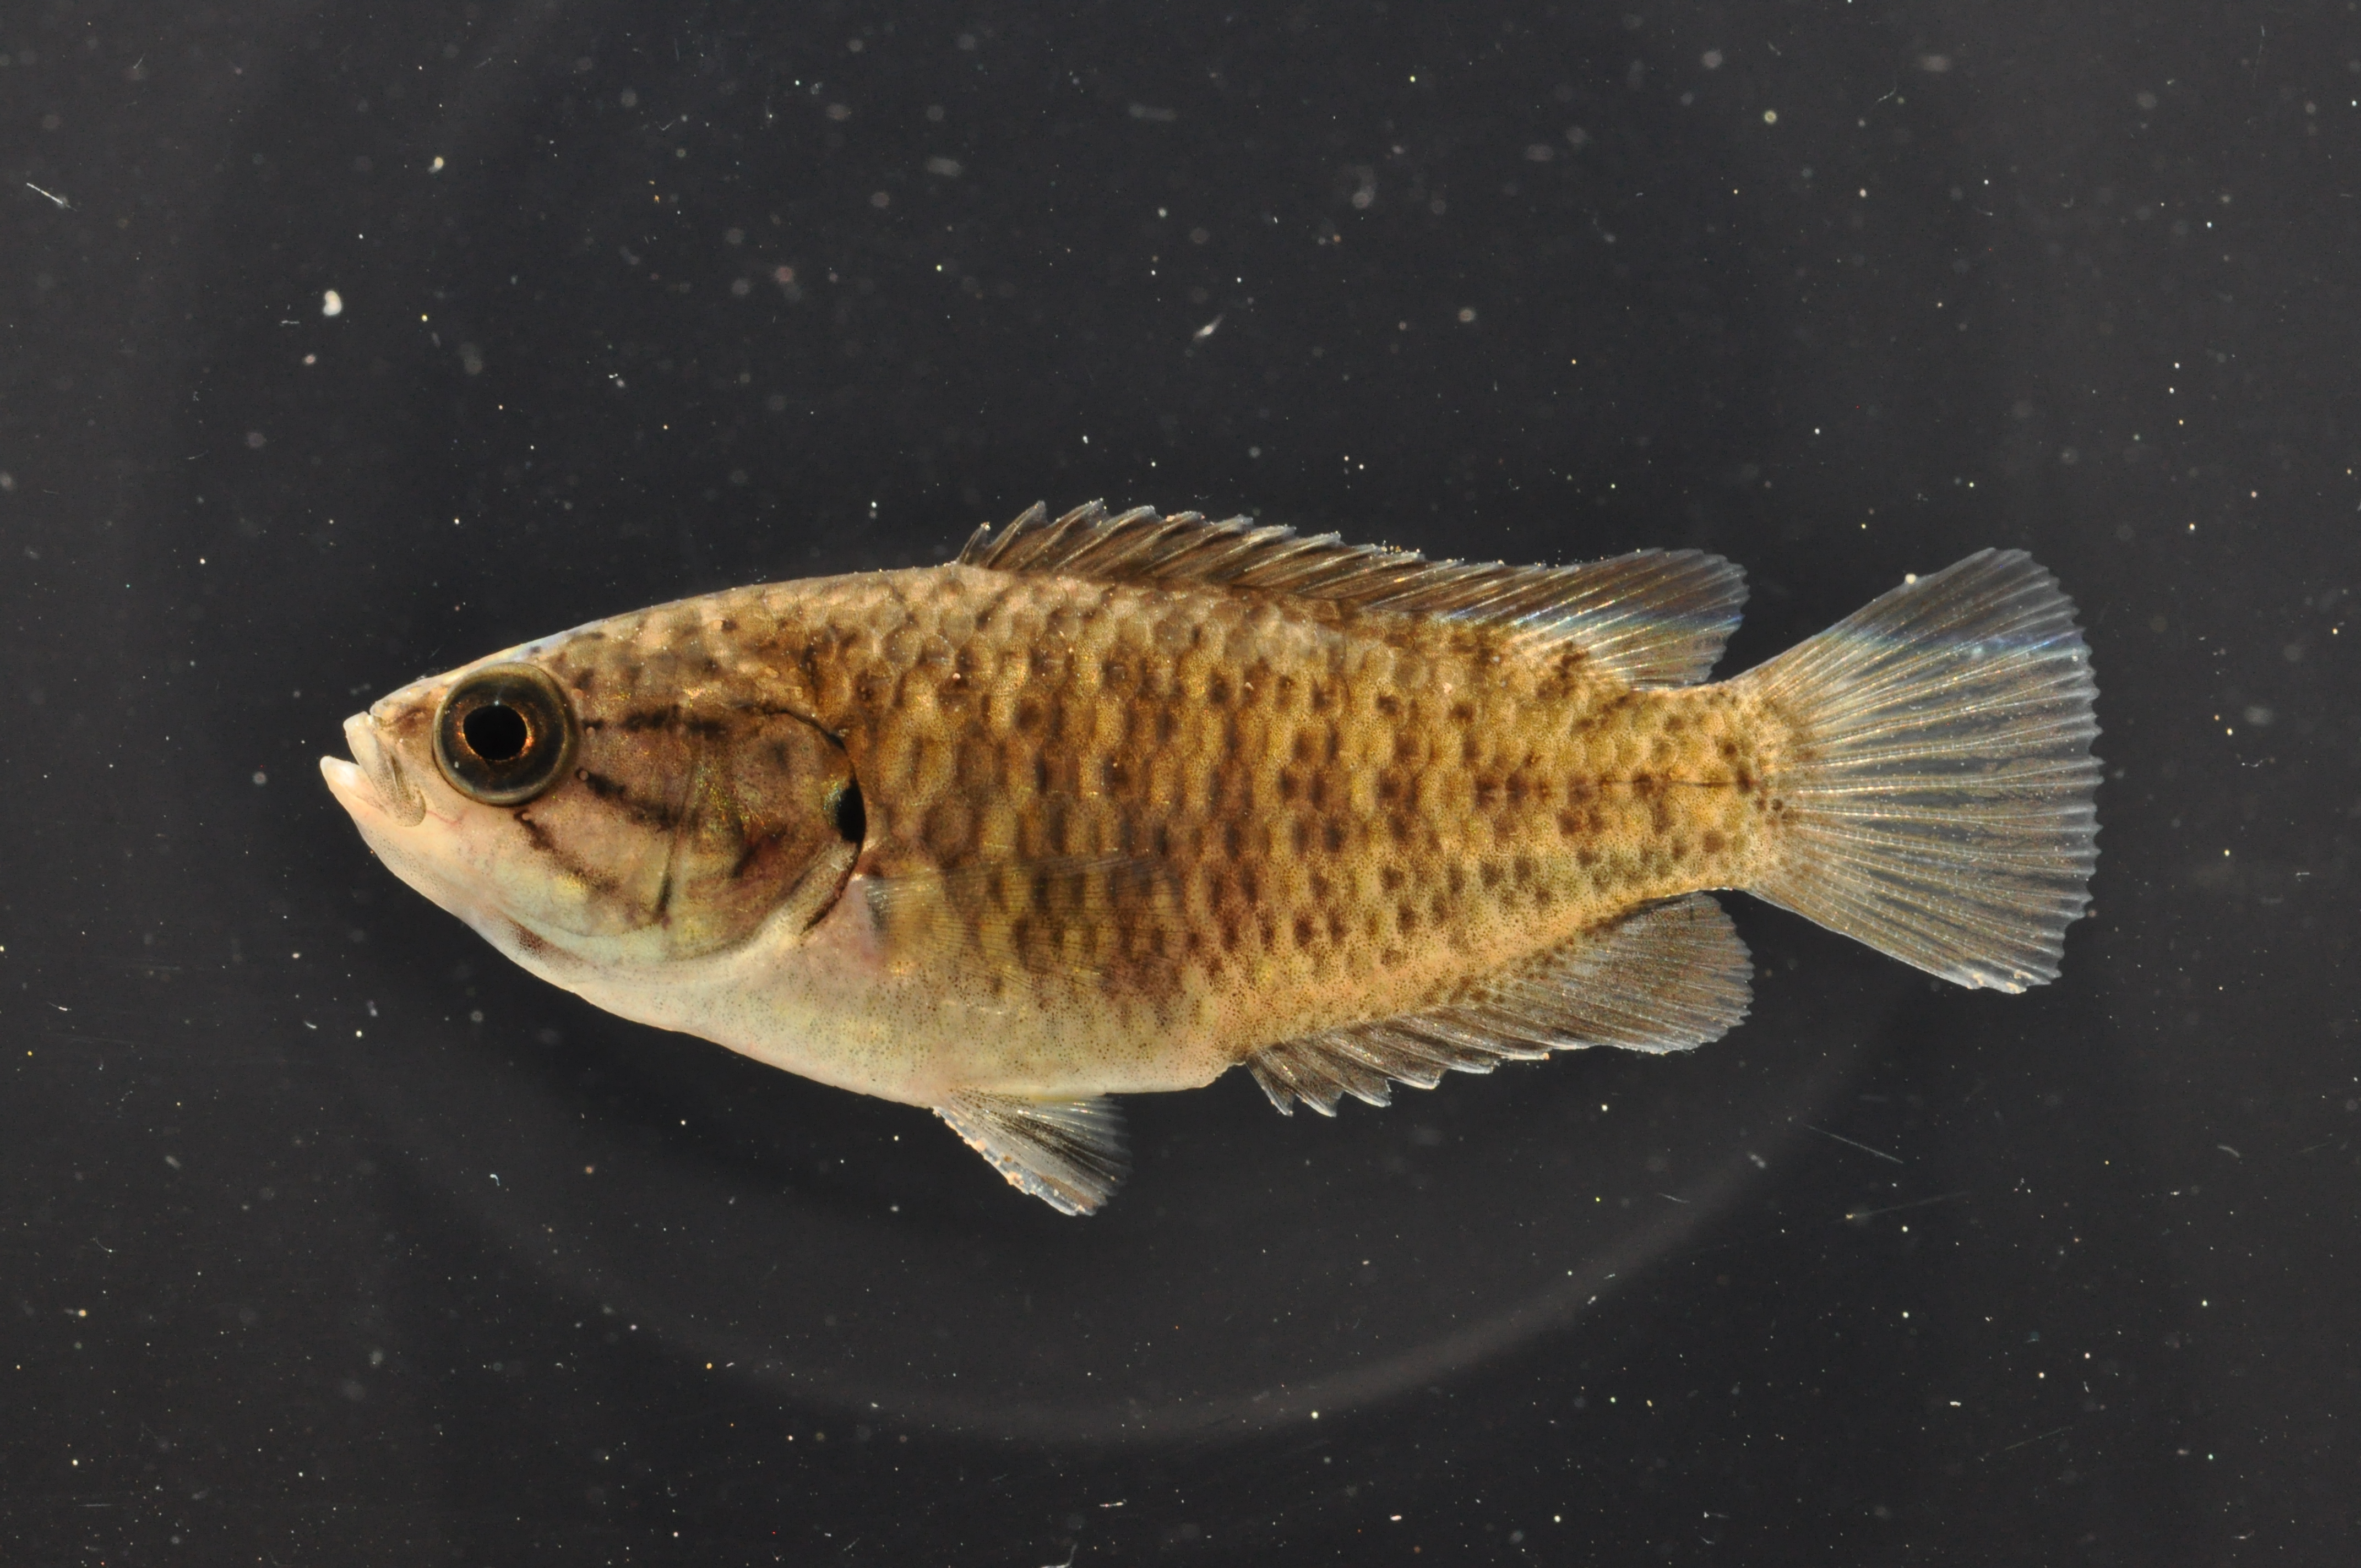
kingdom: Animalia
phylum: Chordata
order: Perciformes
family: Anabantidae
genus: Sandelia
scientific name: Sandelia capensis
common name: Cape kurper
